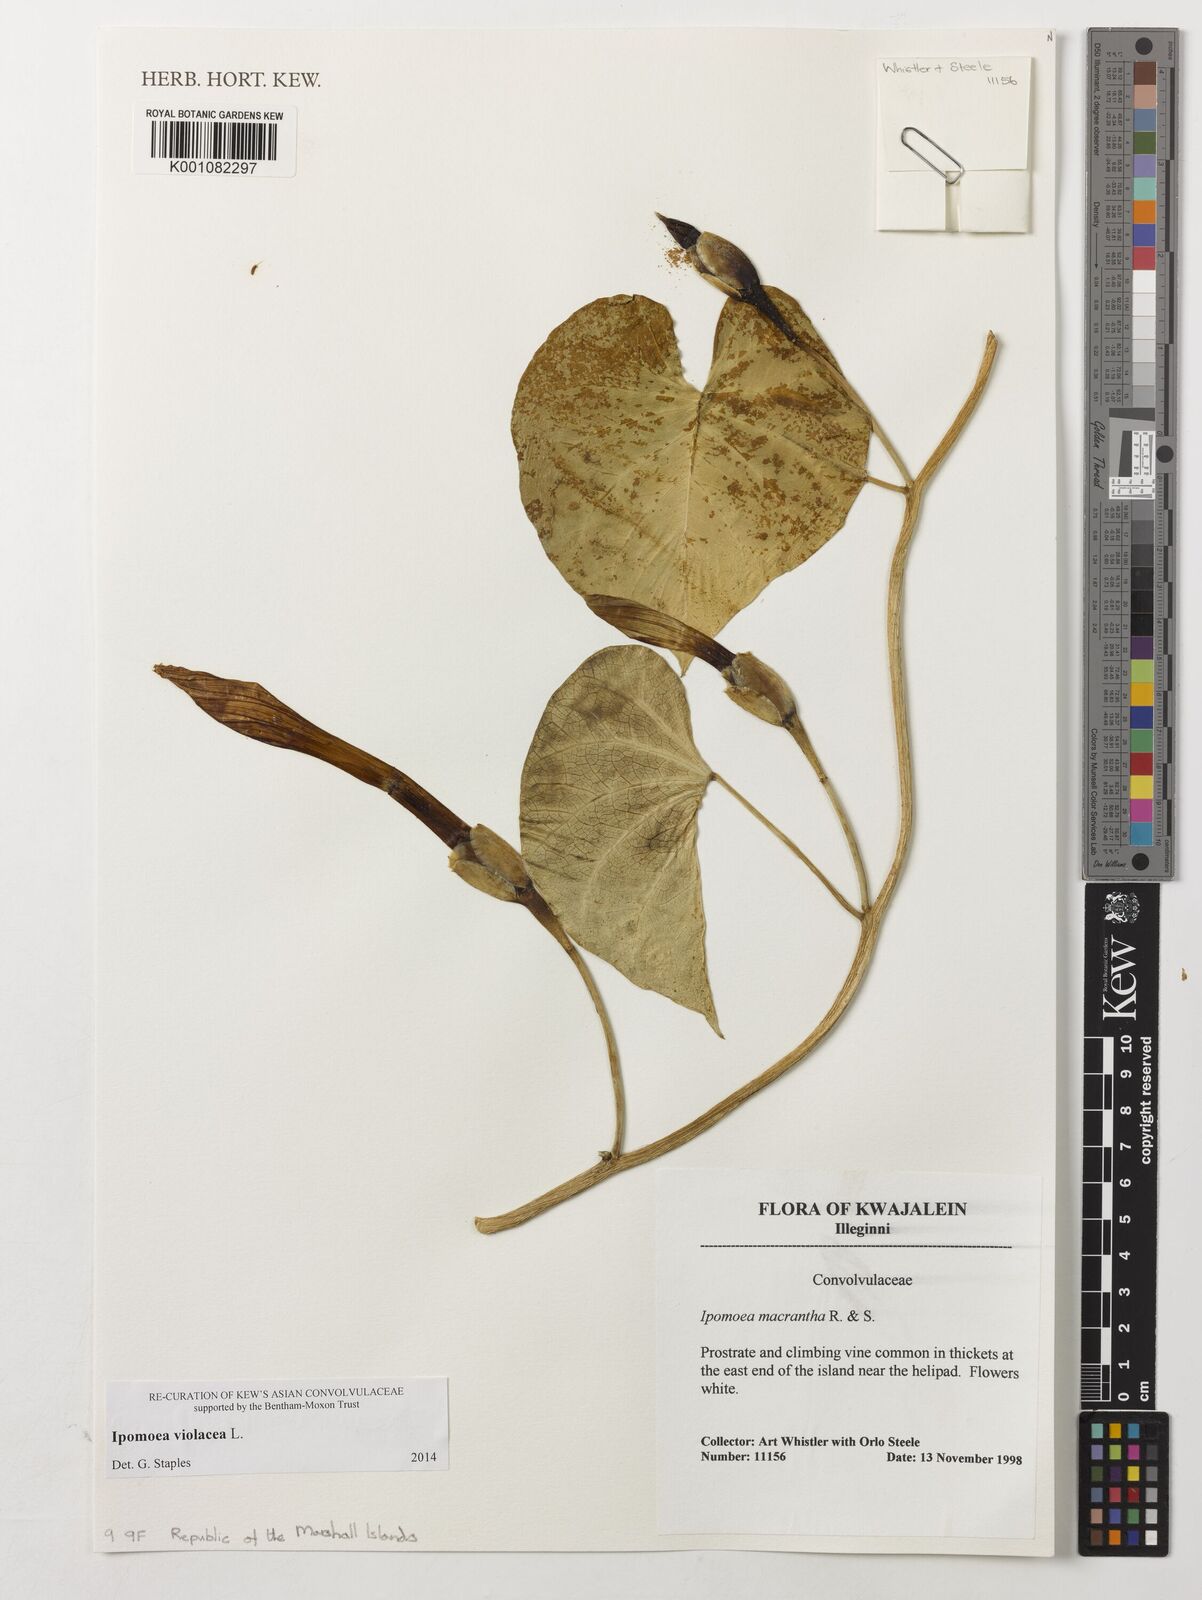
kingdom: Plantae
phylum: Tracheophyta
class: Magnoliopsida
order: Solanales
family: Convolvulaceae
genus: Ipomoea
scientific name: Ipomoea violacea
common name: Beach moonflower
